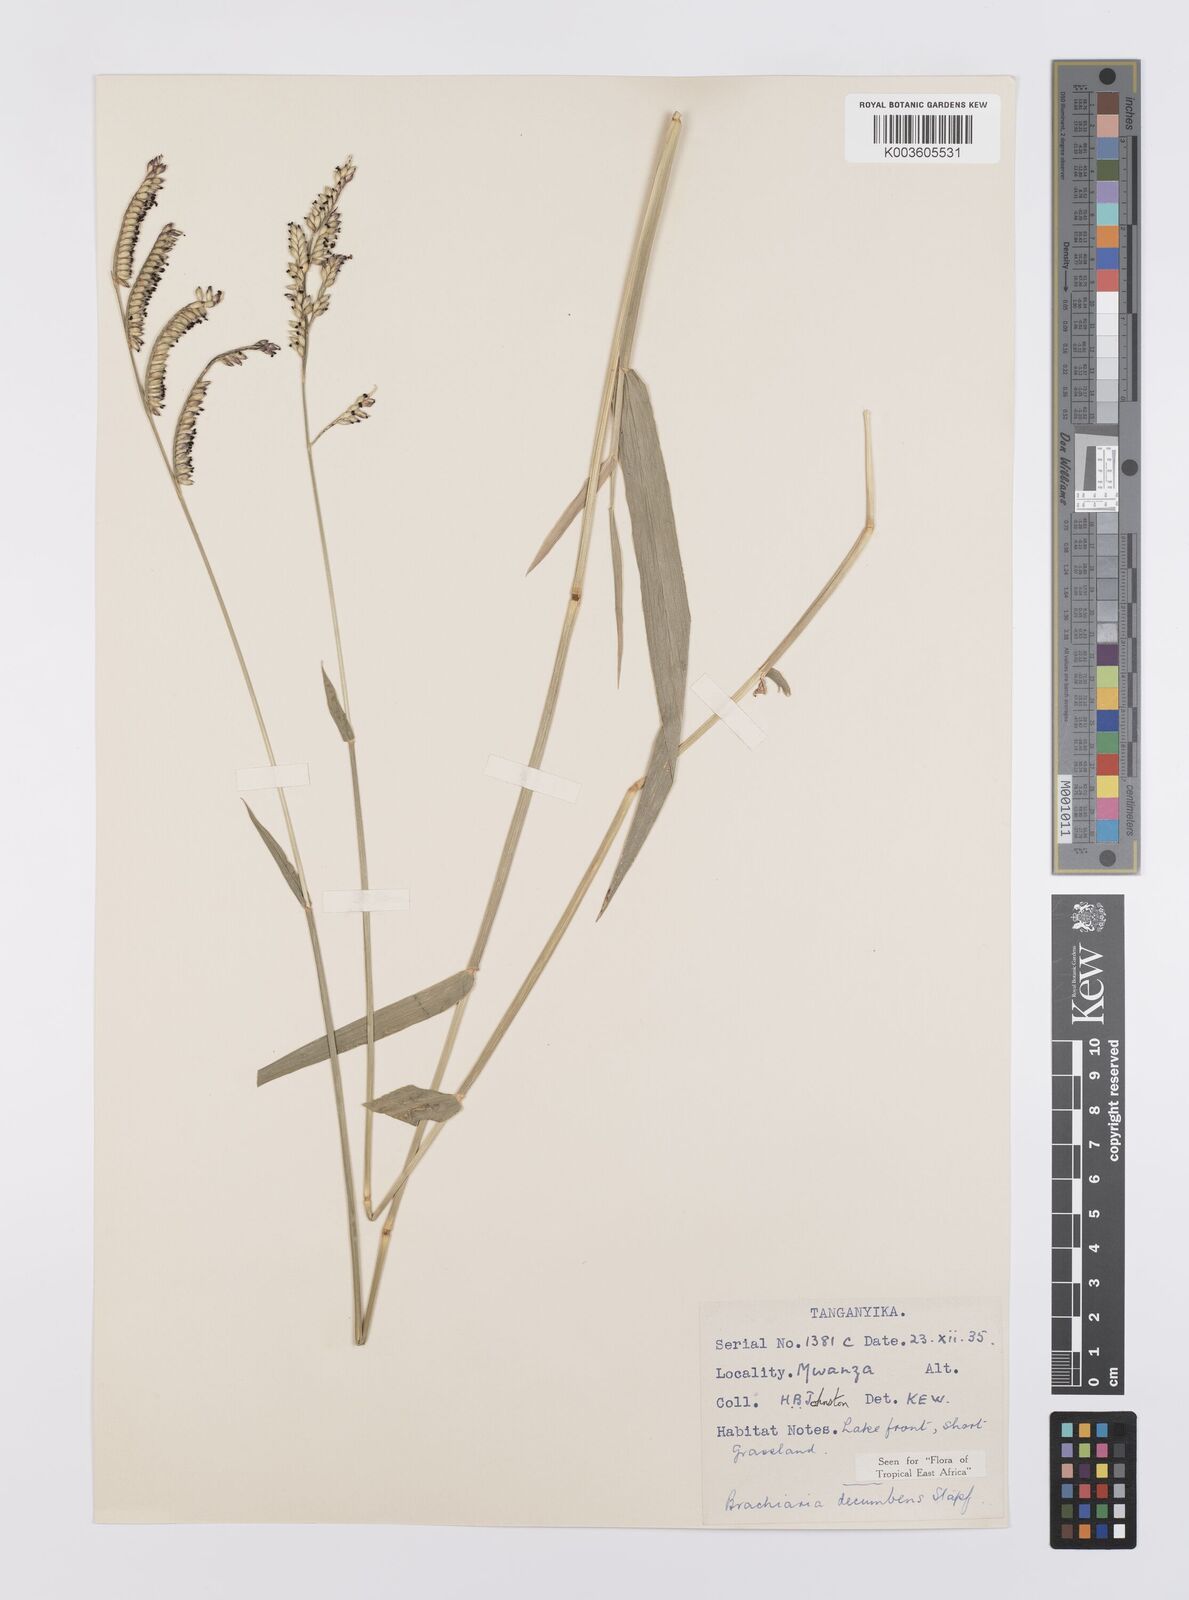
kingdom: Plantae
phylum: Tracheophyta
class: Liliopsida
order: Poales
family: Poaceae
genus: Urochloa
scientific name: Urochloa eminii
